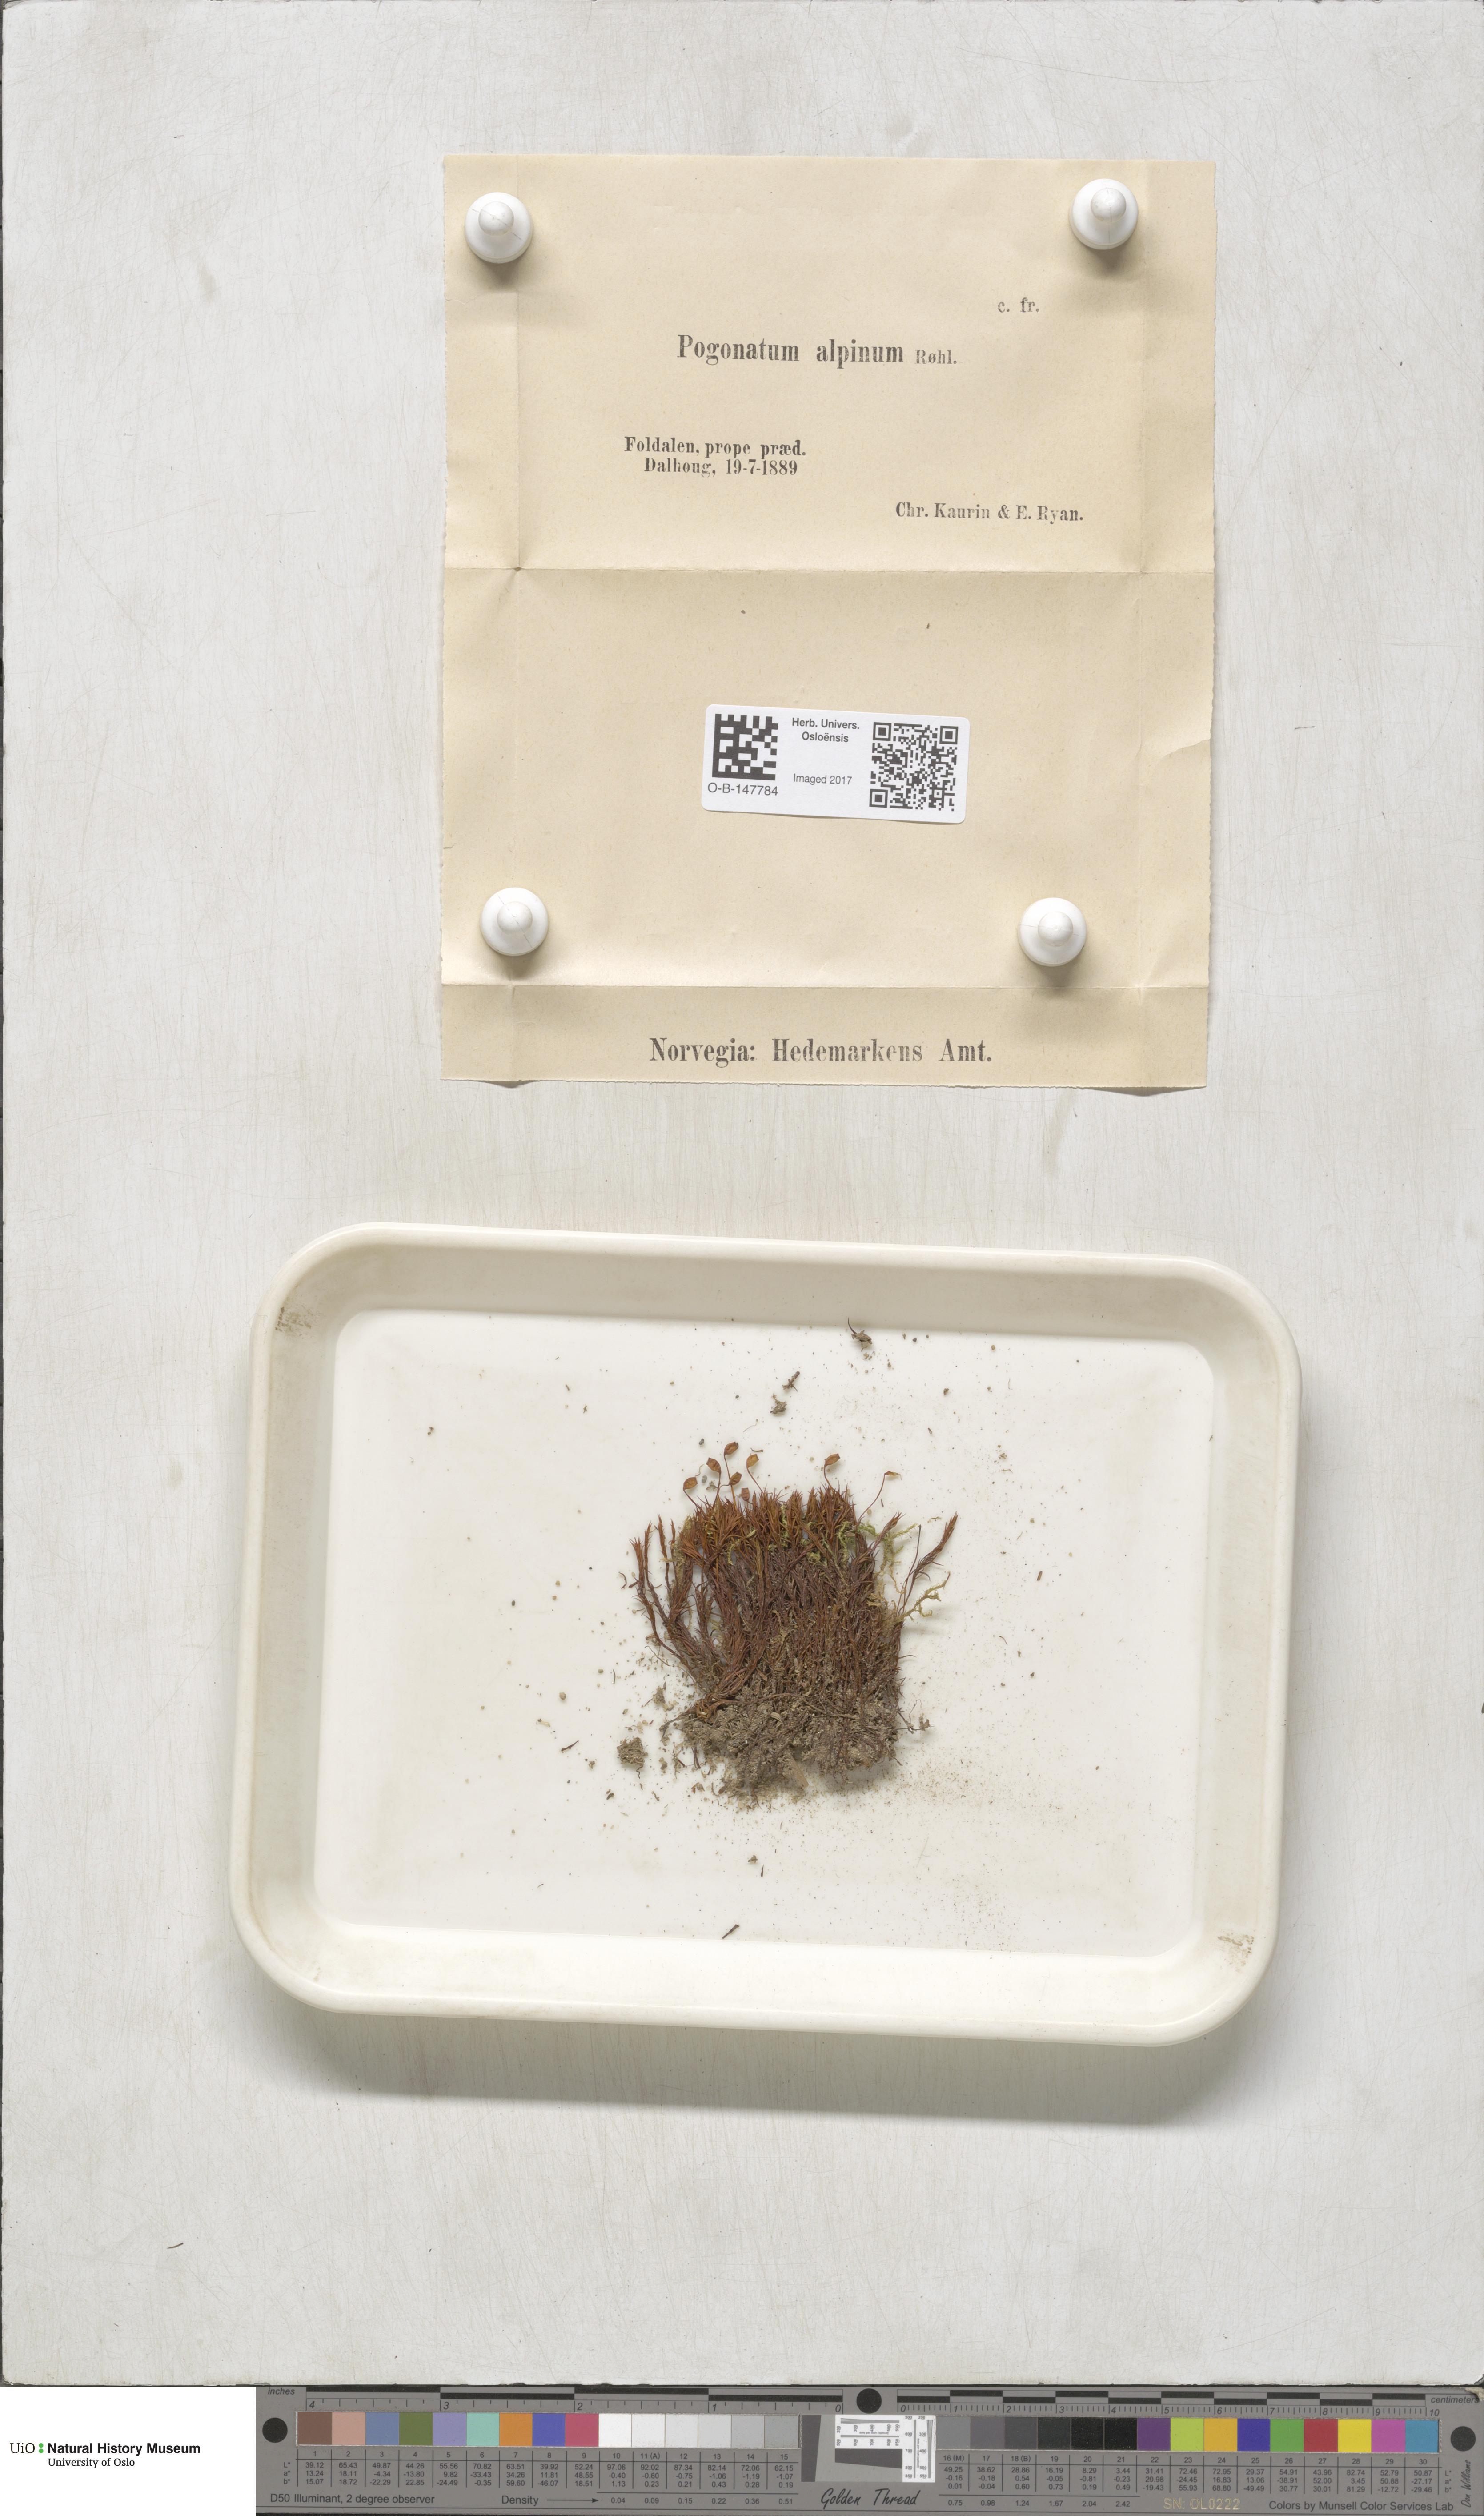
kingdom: Plantae
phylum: Bryophyta
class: Polytrichopsida
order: Polytrichales
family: Polytrichaceae
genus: Polytrichastrum
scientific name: Polytrichastrum alpinum
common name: Alpine haircap
